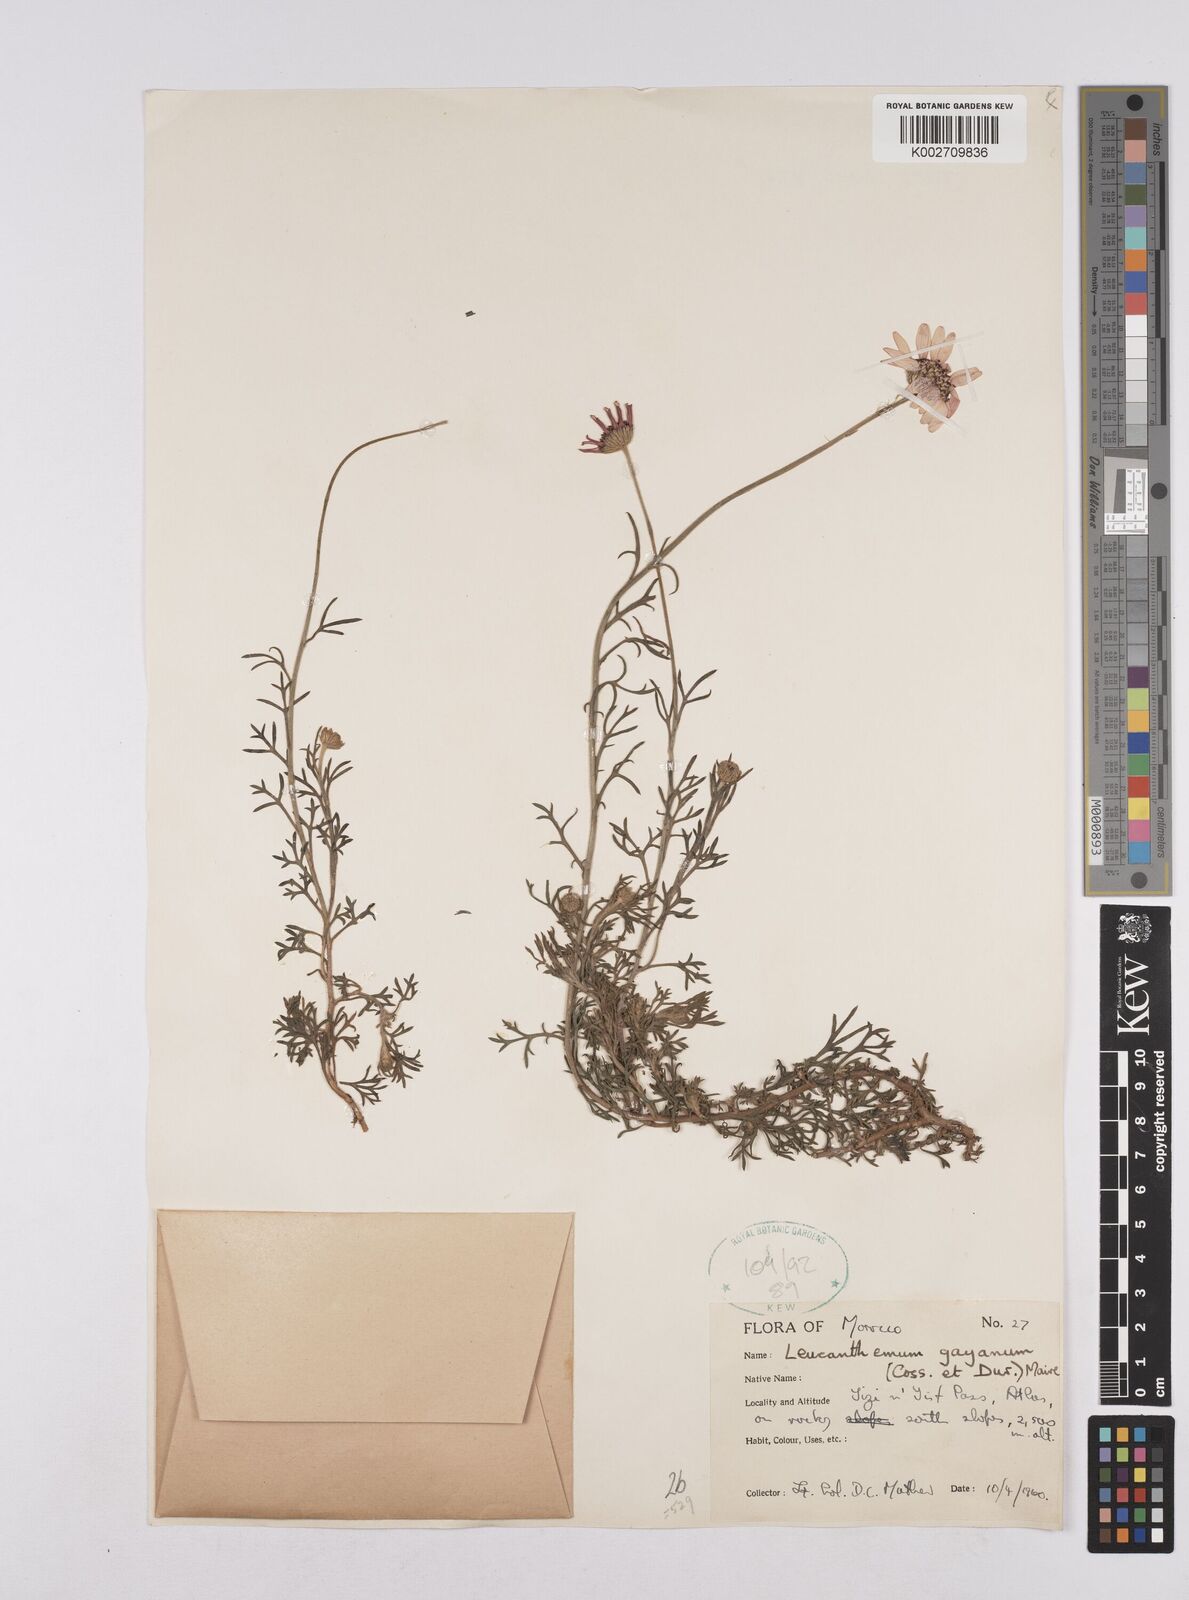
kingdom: Plantae
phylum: Tracheophyta
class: Magnoliopsida
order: Asterales
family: Asteraceae
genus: Rhodanthemum
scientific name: Rhodanthemum gayanum
